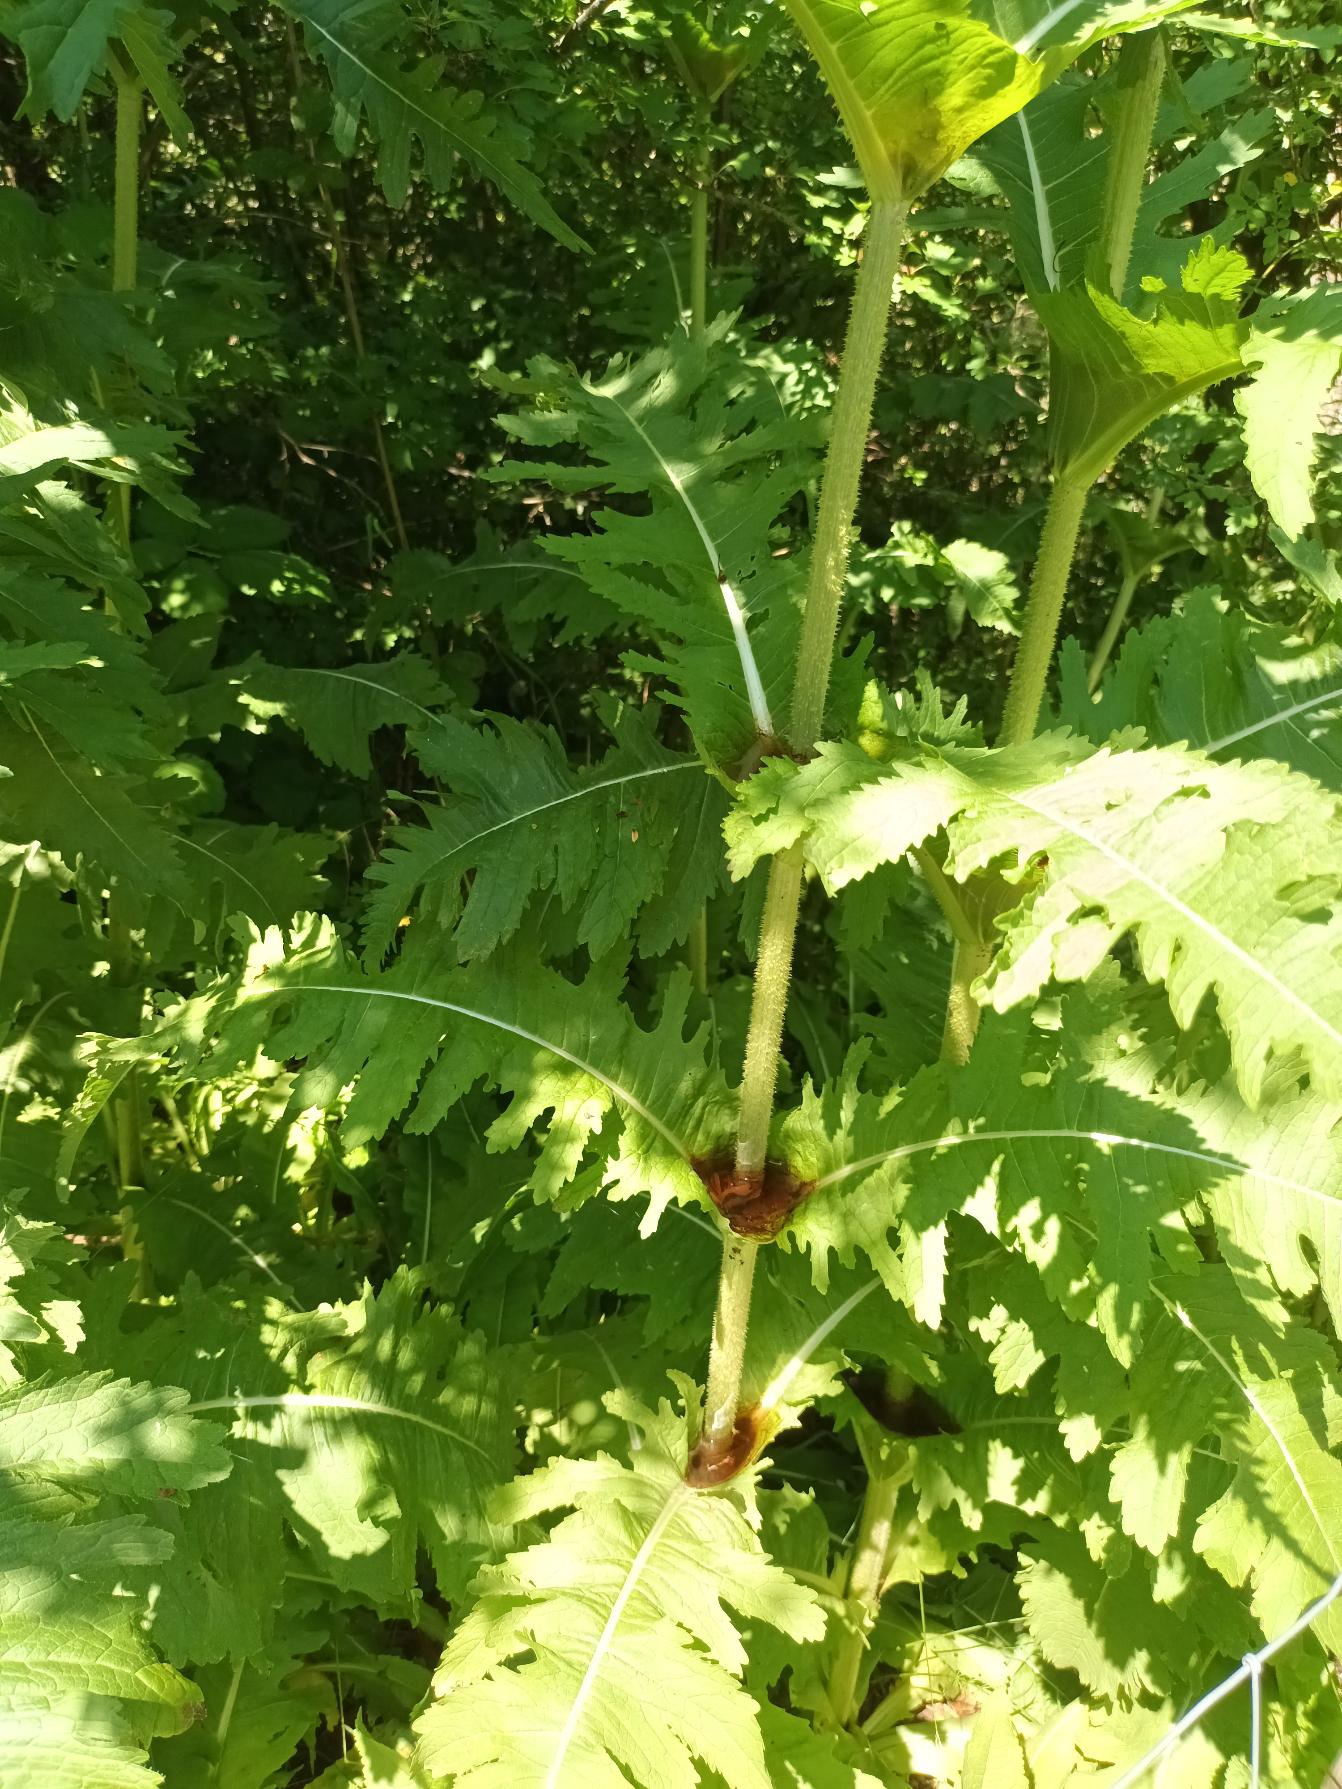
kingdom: Plantae
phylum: Tracheophyta
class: Magnoliopsida
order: Dipsacales
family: Caprifoliaceae
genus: Dipsacus
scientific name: Dipsacus laciniatus
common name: Fliget kartebolle
